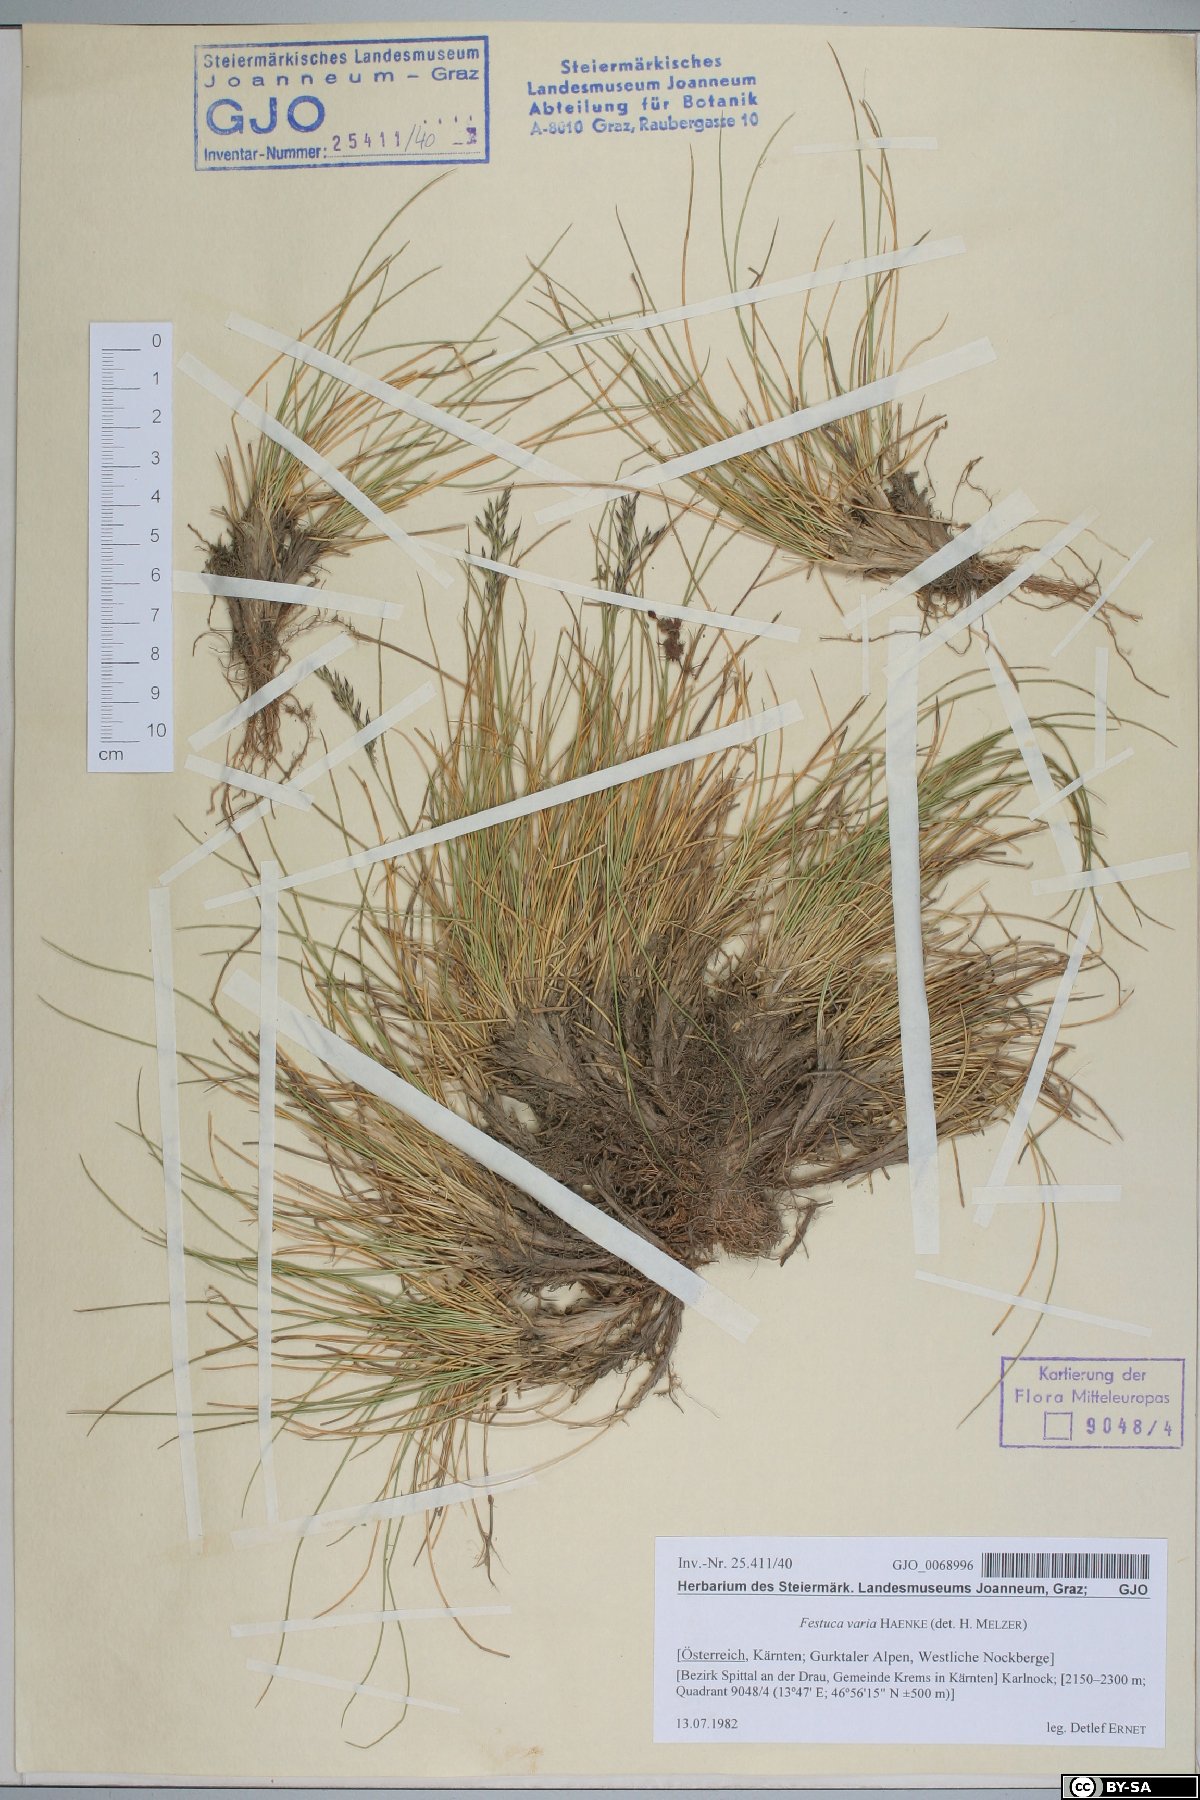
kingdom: Plantae
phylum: Tracheophyta
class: Liliopsida
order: Poales
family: Poaceae
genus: Festuca
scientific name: Festuca varia
